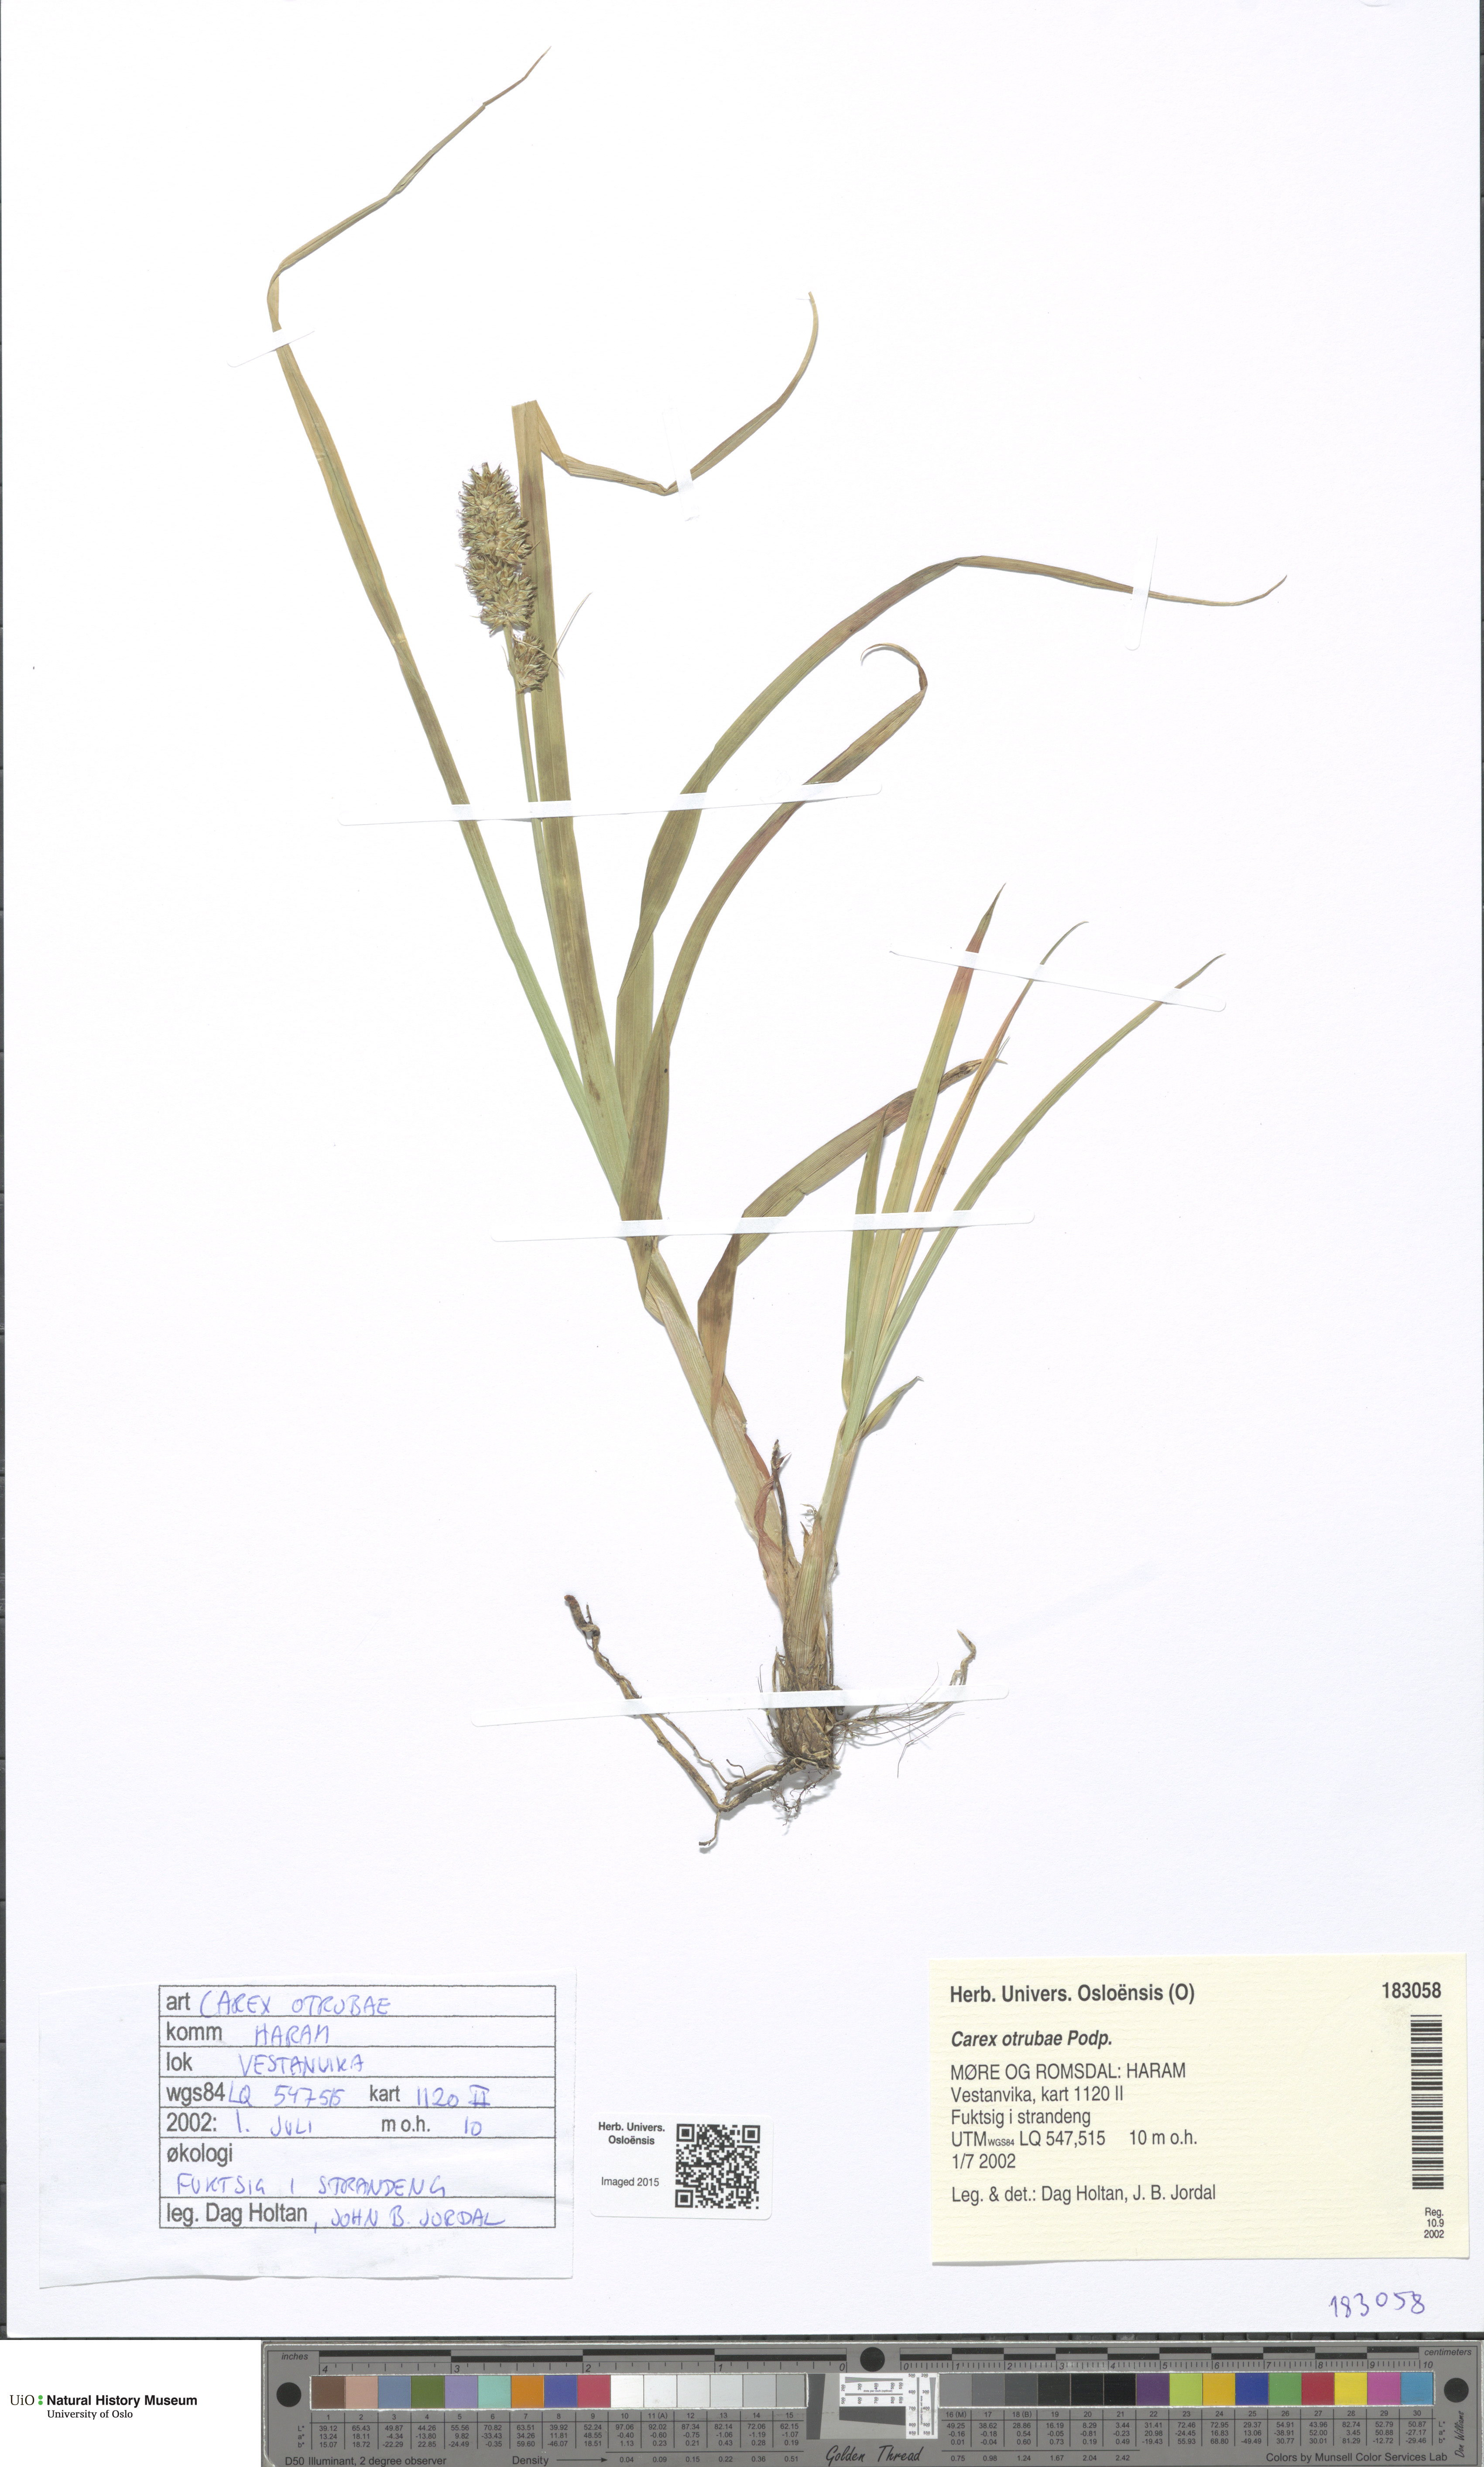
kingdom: Plantae
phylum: Tracheophyta
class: Liliopsida
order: Poales
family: Cyperaceae
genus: Carex
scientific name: Carex otrubae
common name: False fox-sedge
